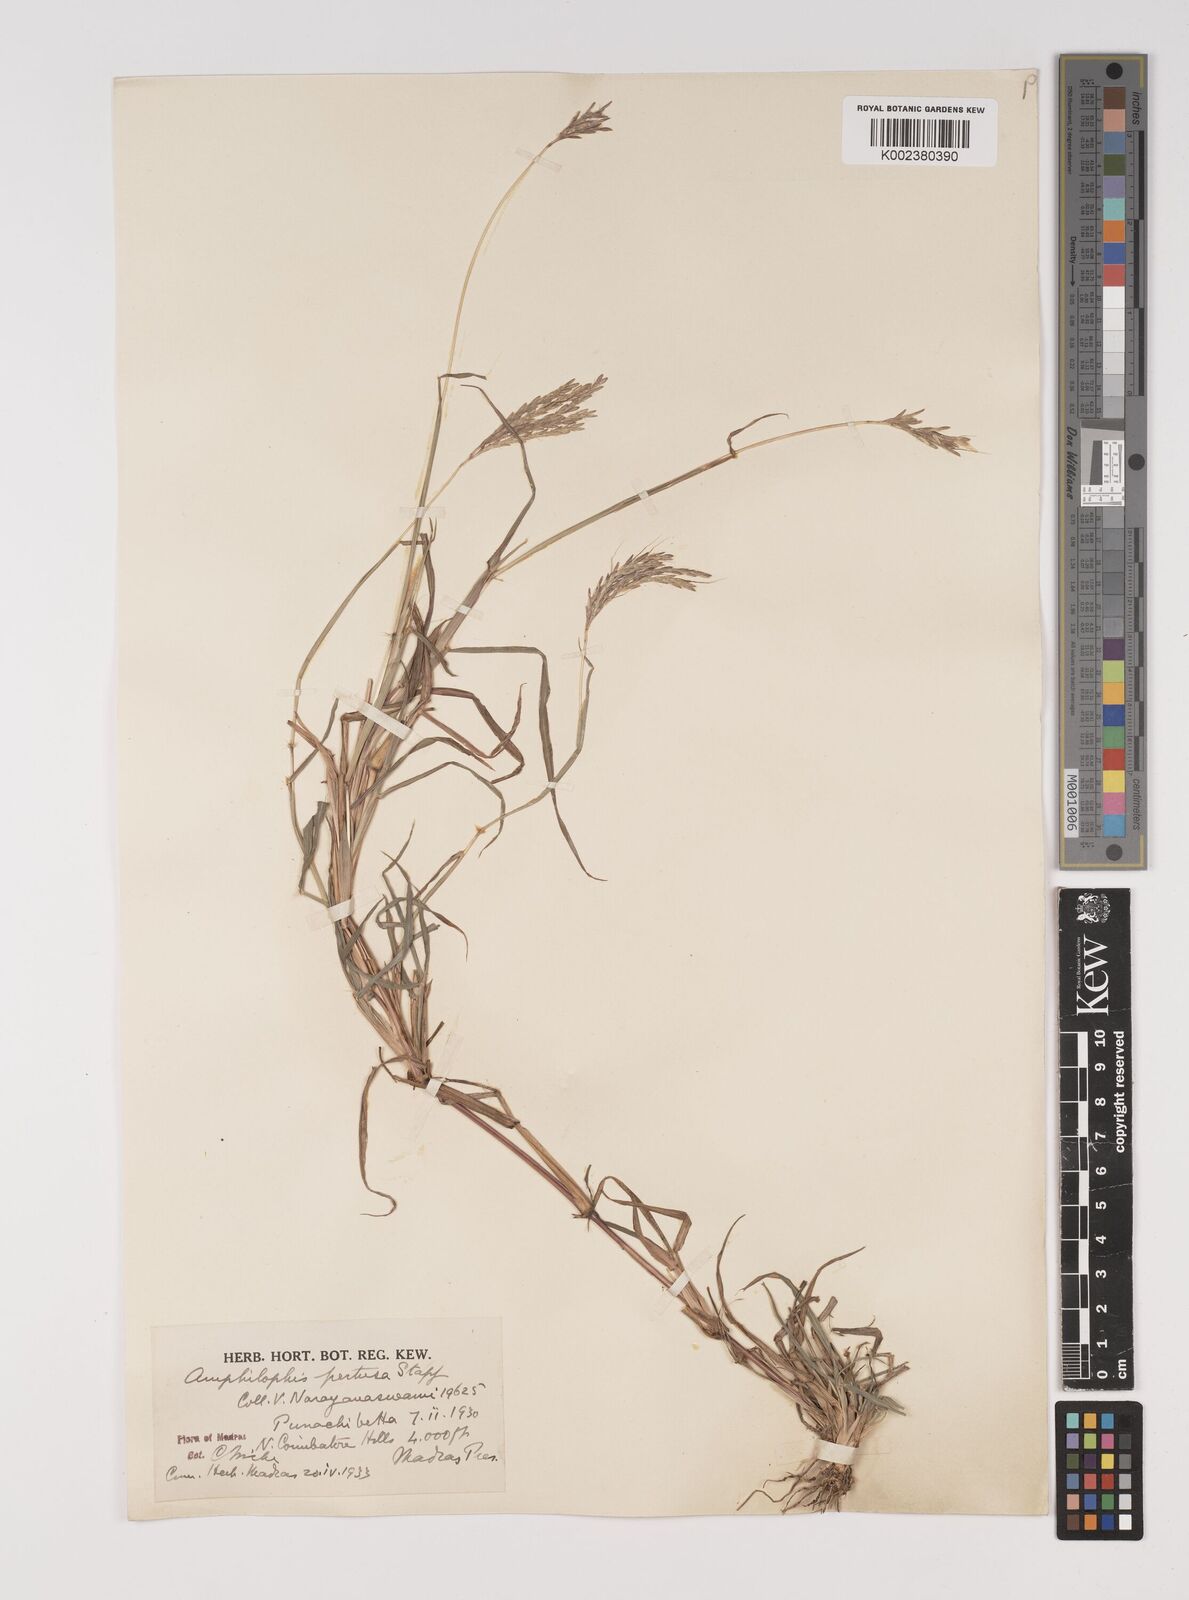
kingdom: Plantae
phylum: Tracheophyta
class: Liliopsida
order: Poales
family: Poaceae
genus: Bothriochloa
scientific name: Bothriochloa pertusa
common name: Pitted beardgrass
